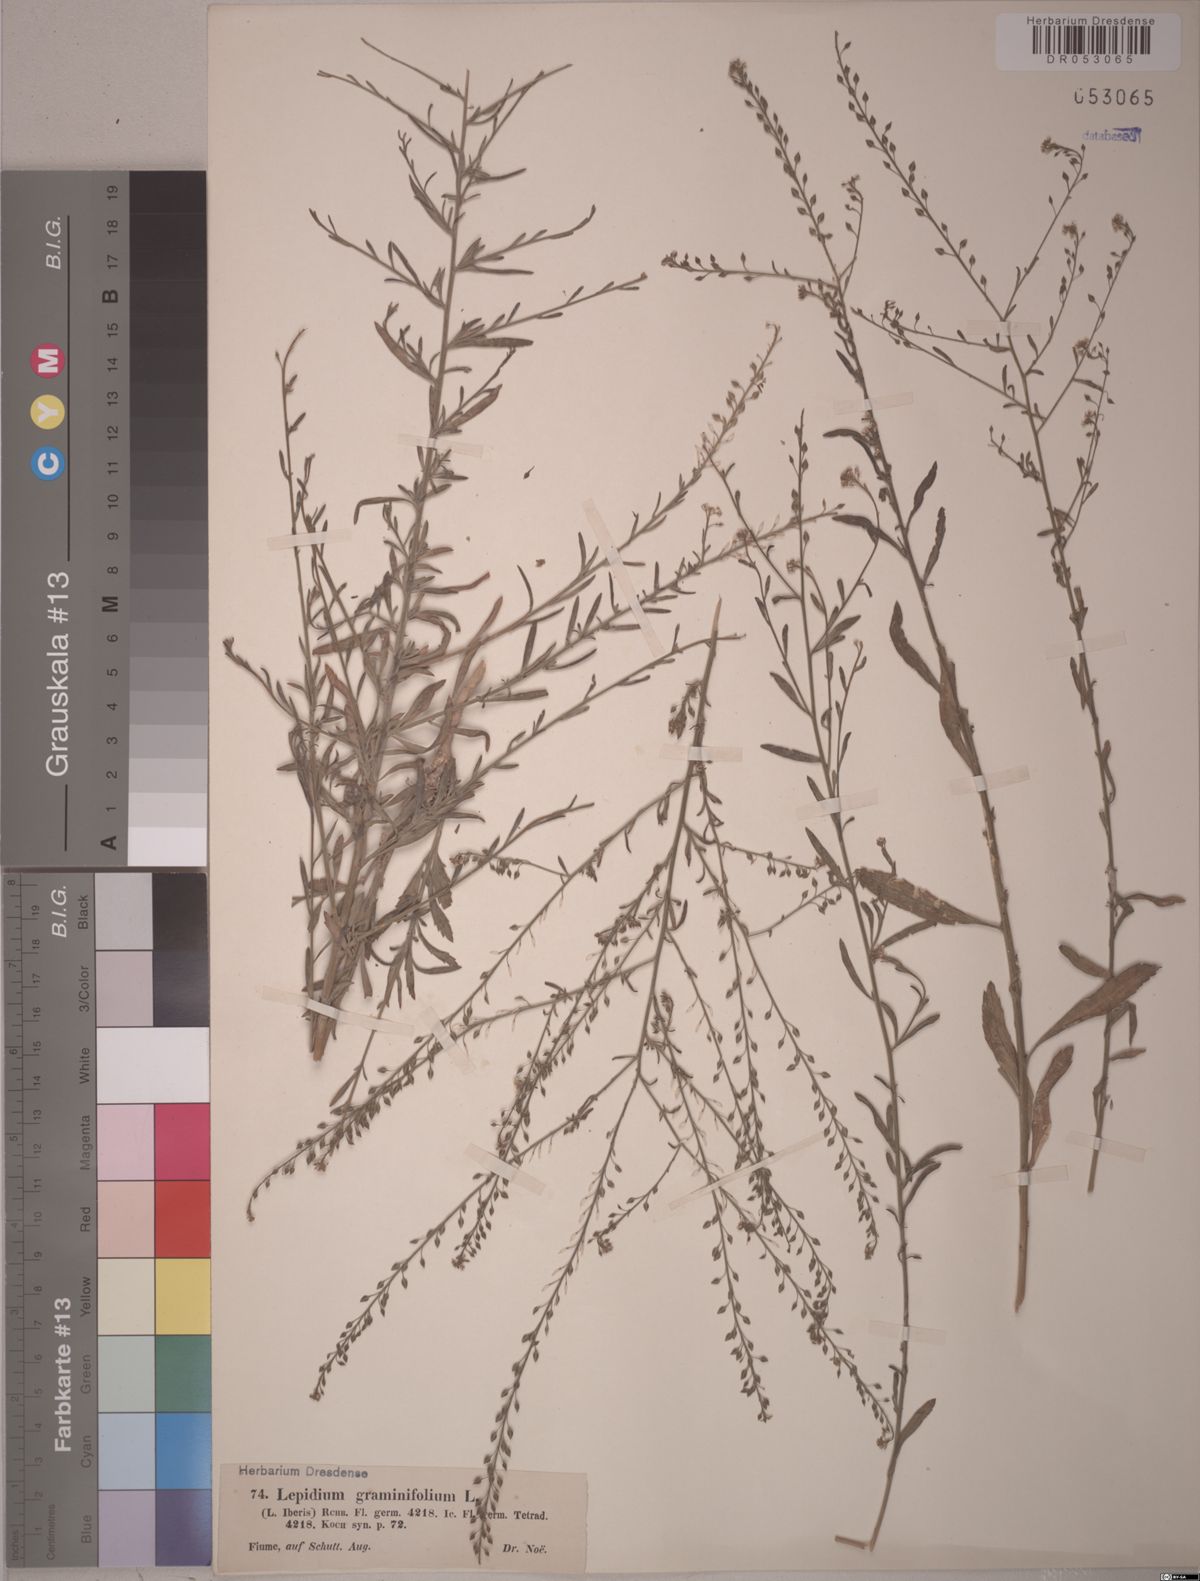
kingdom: Plantae
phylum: Tracheophyta
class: Magnoliopsida
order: Brassicales
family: Brassicaceae
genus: Lepidium
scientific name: Lepidium graminifolium
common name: Tall pepperwort
